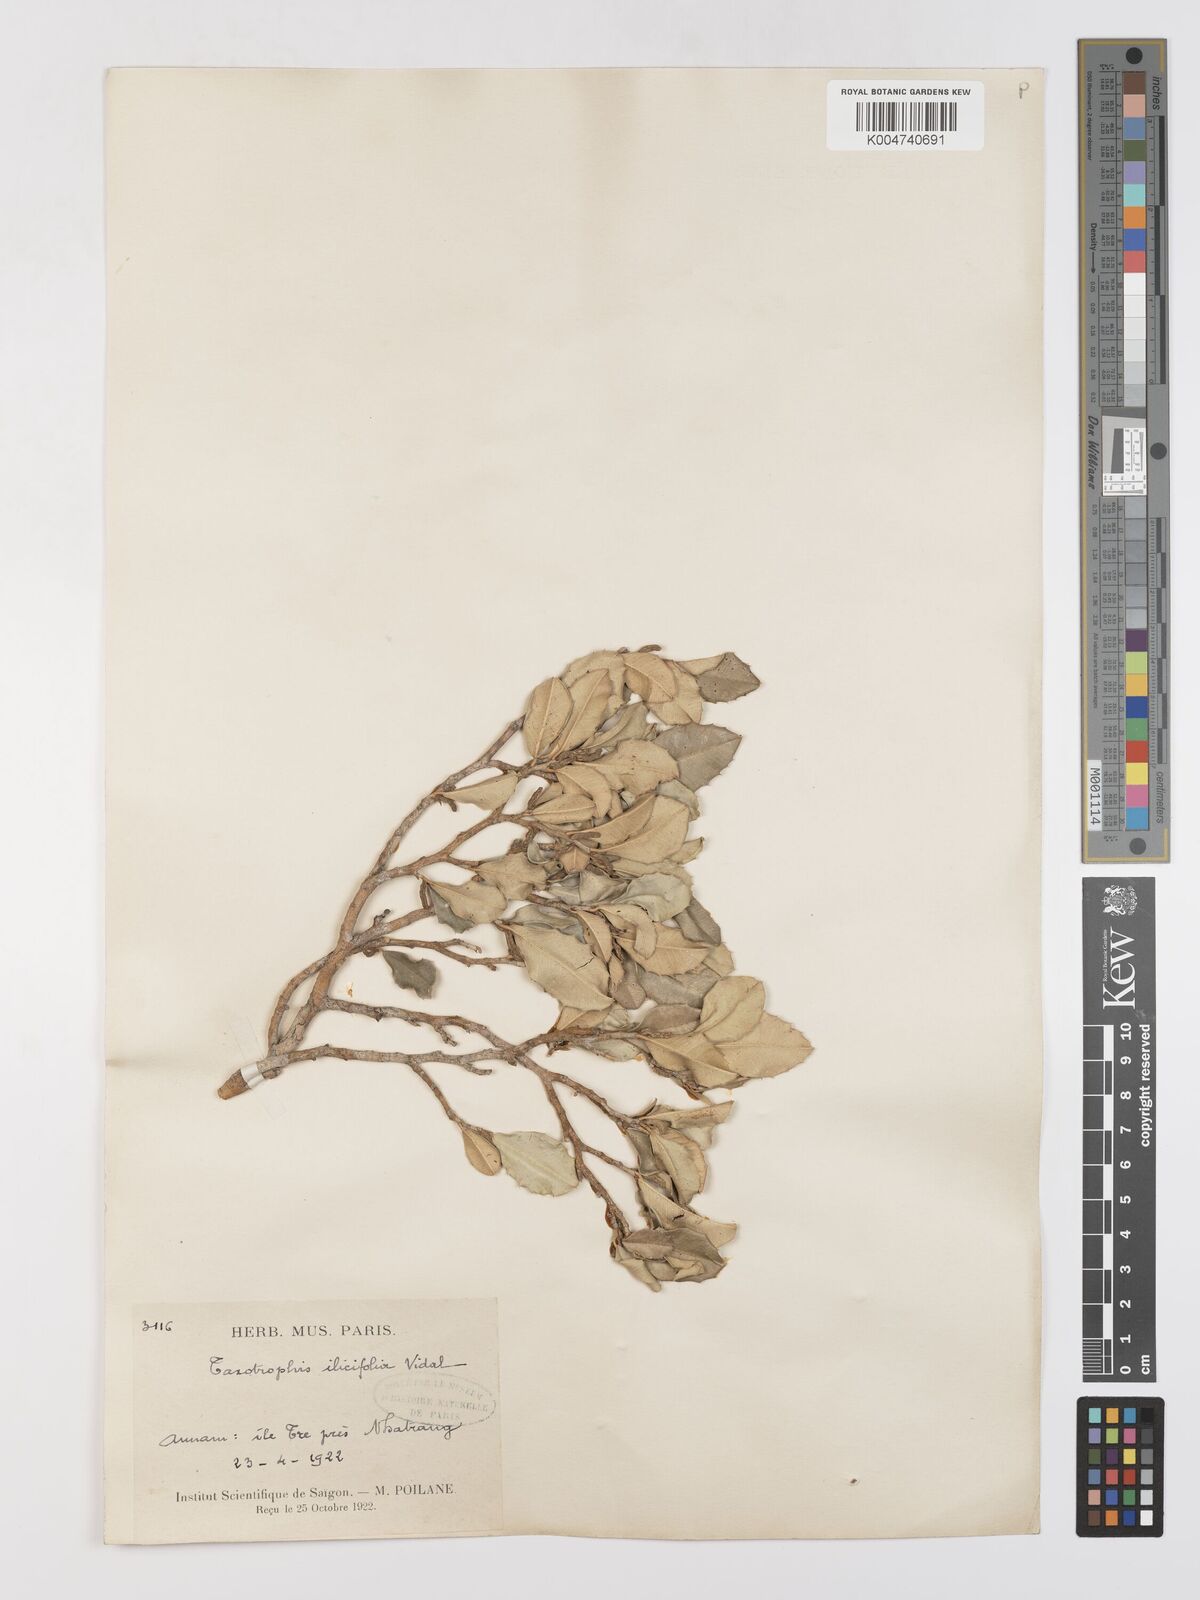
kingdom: Plantae
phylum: Tracheophyta
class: Magnoliopsida
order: Rosales
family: Moraceae
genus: Taxotrophis
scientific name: Taxotrophis ilicifolia
